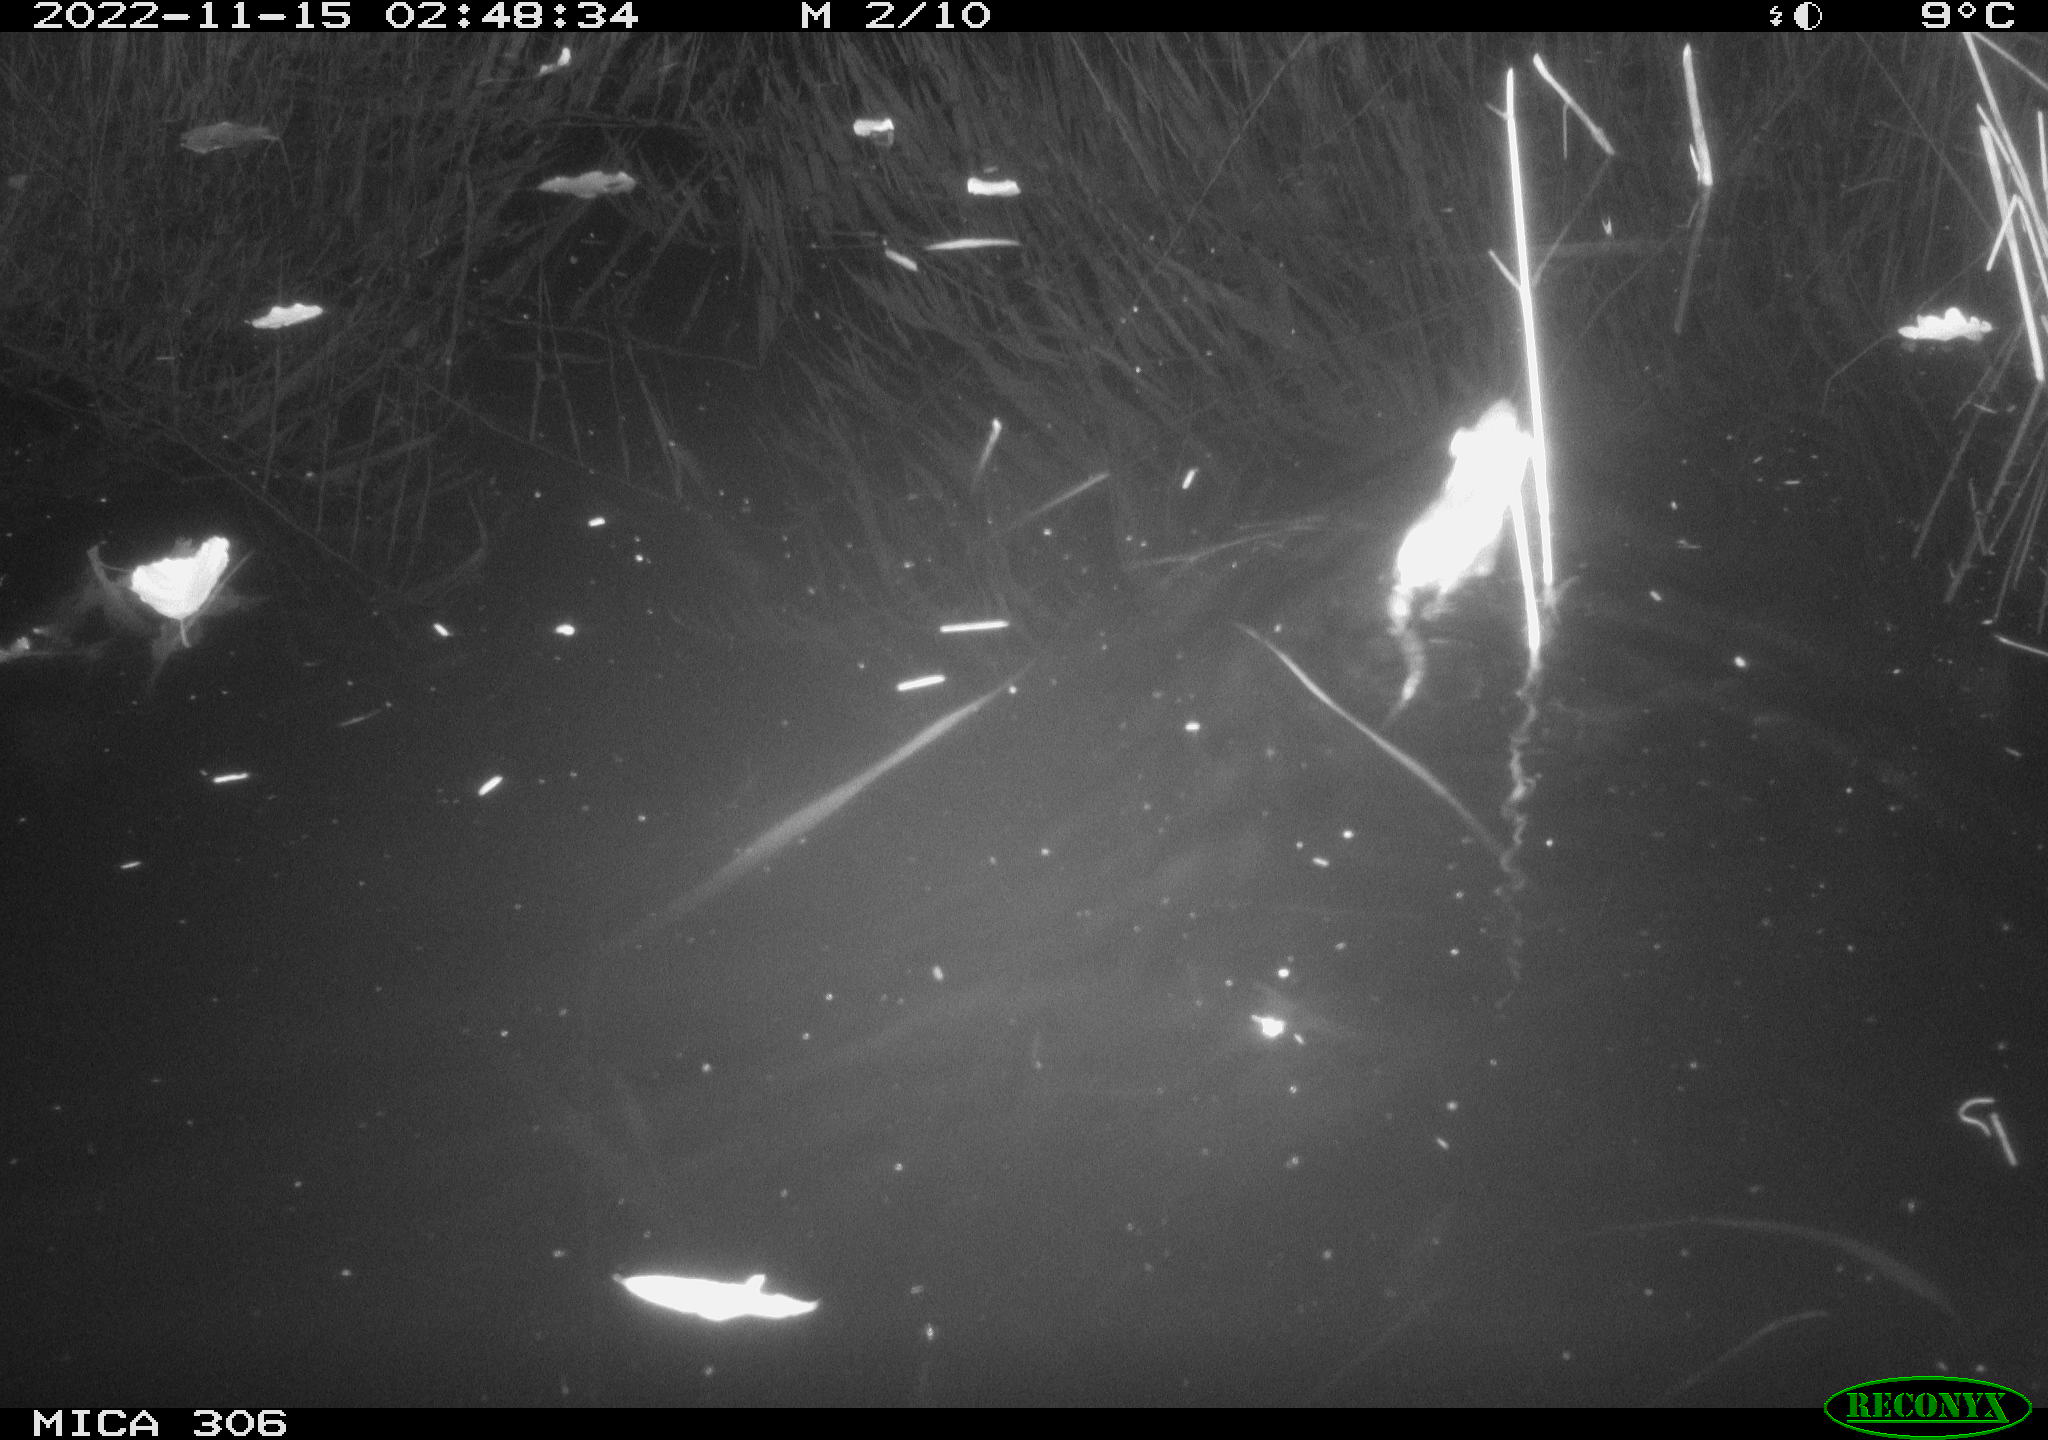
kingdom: Animalia
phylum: Chordata
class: Mammalia
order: Rodentia
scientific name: Rodentia
